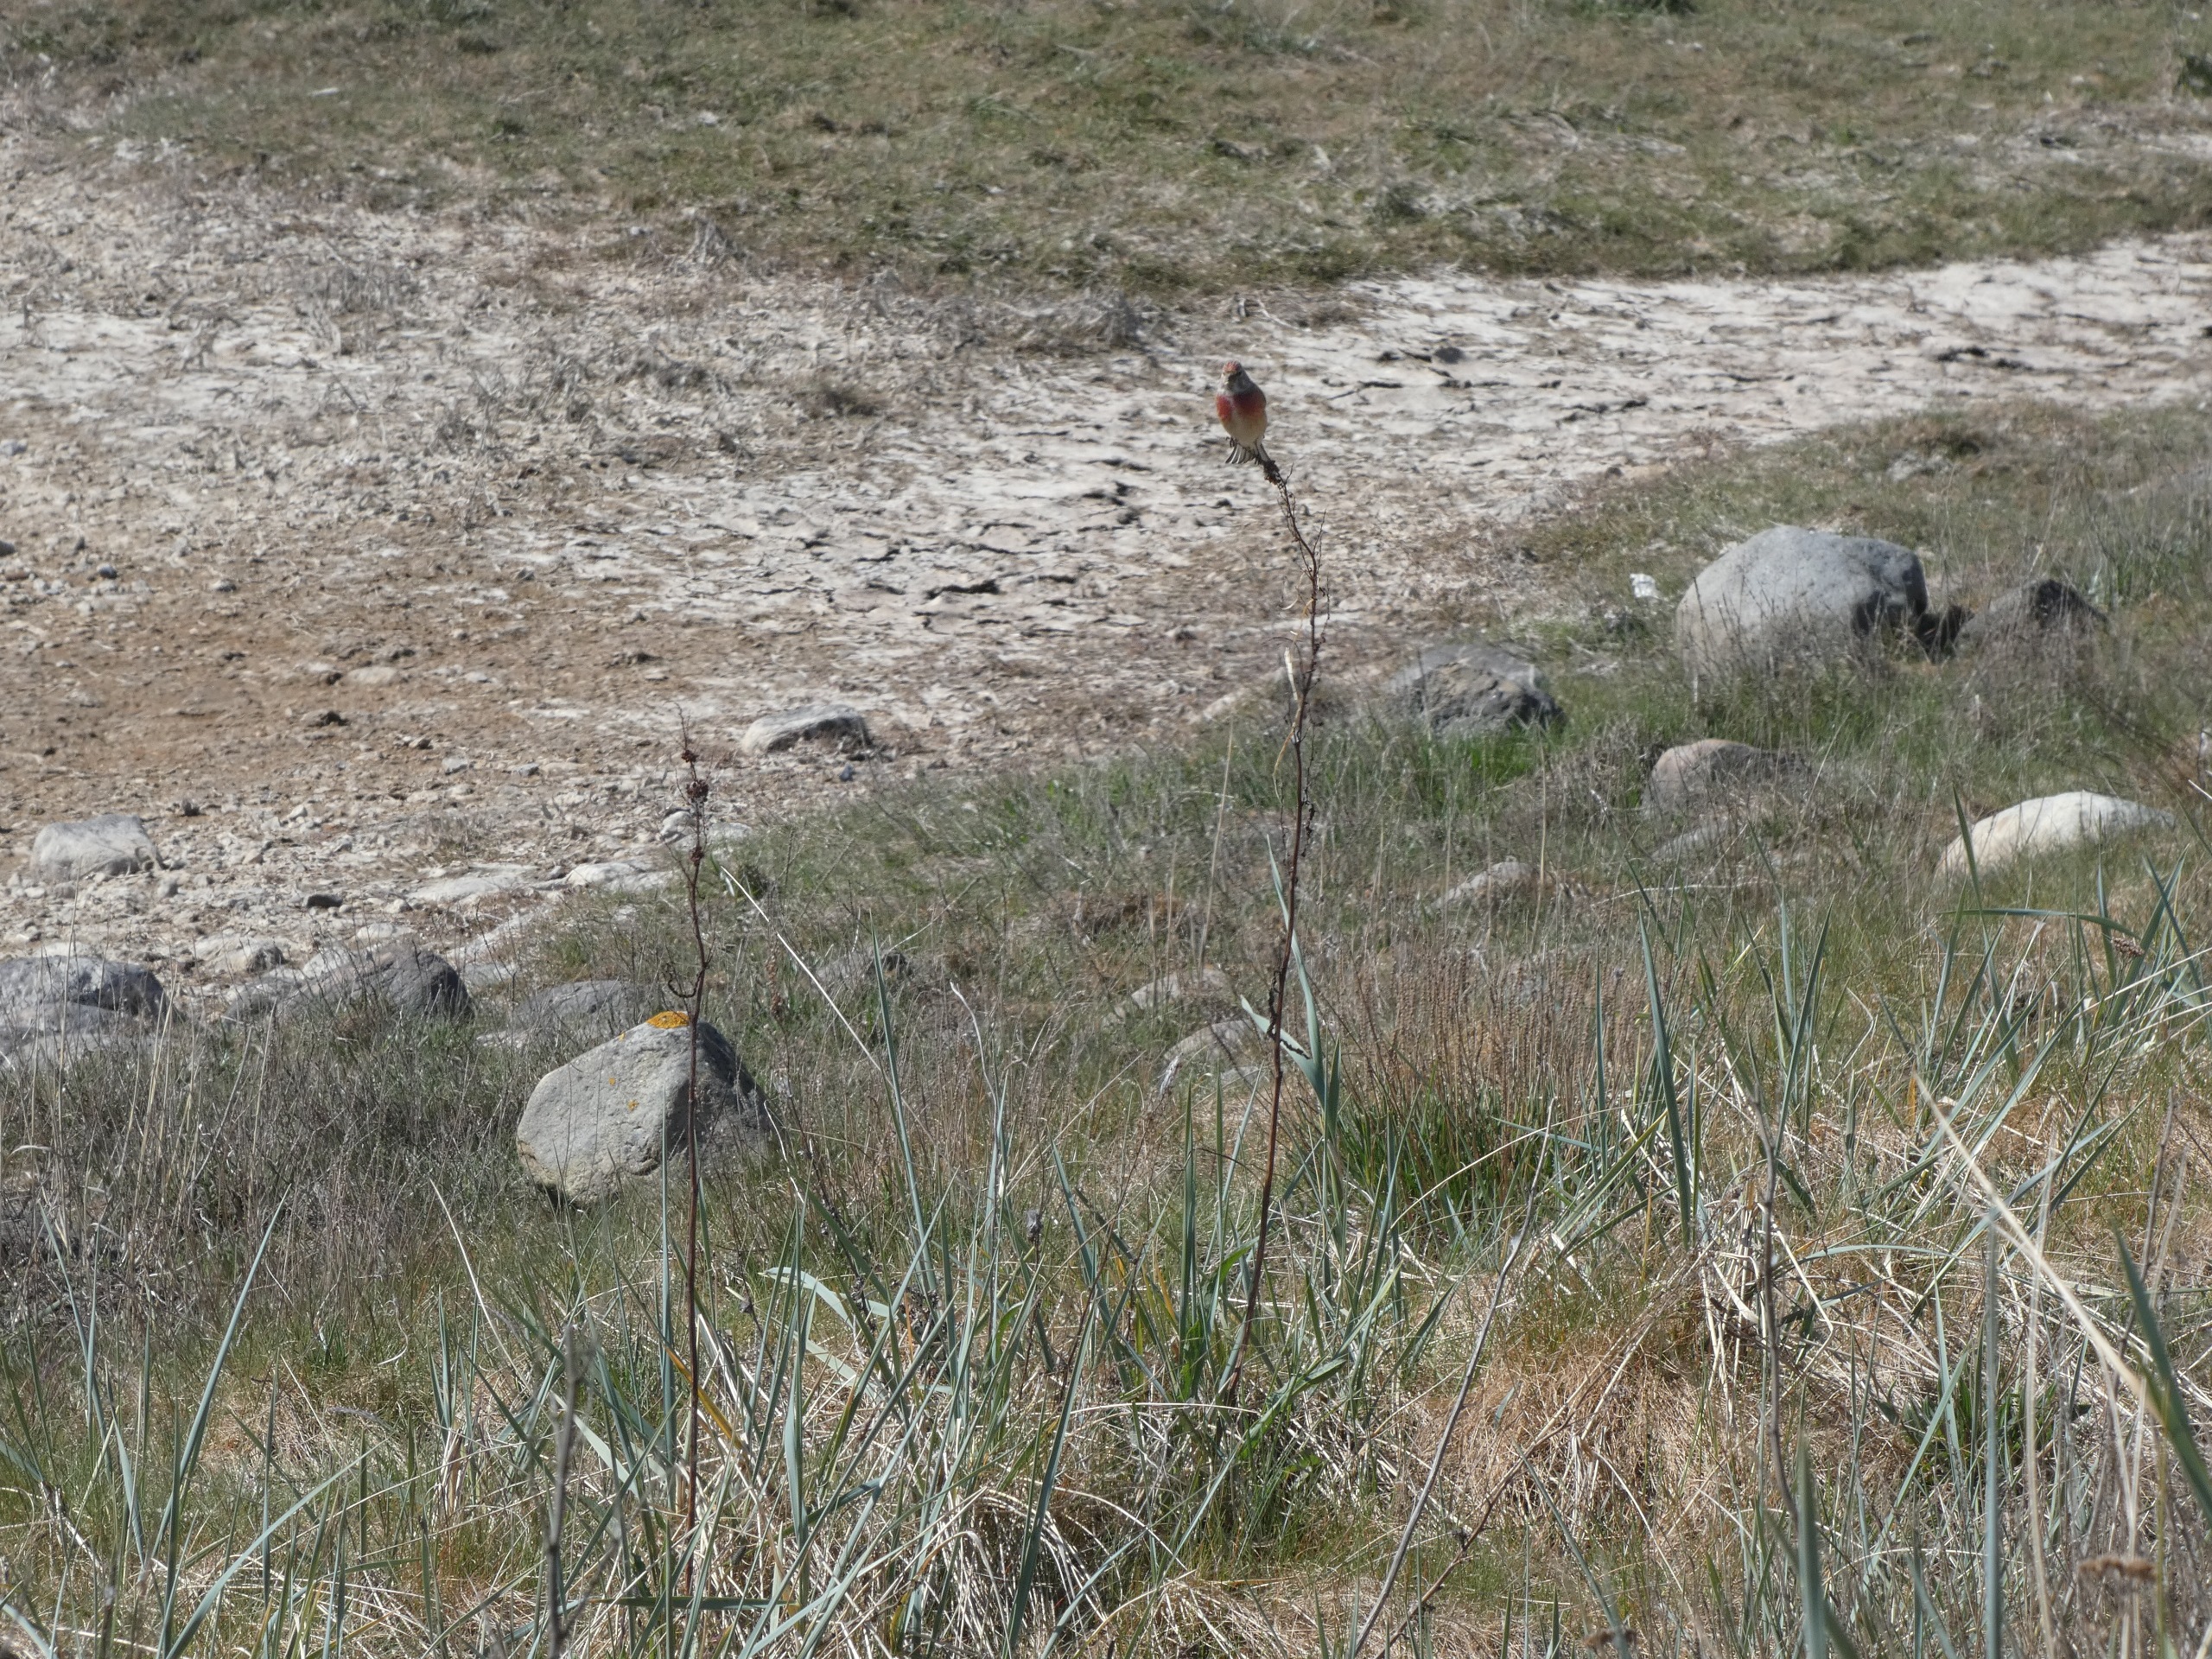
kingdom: Animalia
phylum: Chordata
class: Aves
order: Passeriformes
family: Fringillidae
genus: Linaria
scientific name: Linaria cannabina
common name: Tornirisk
